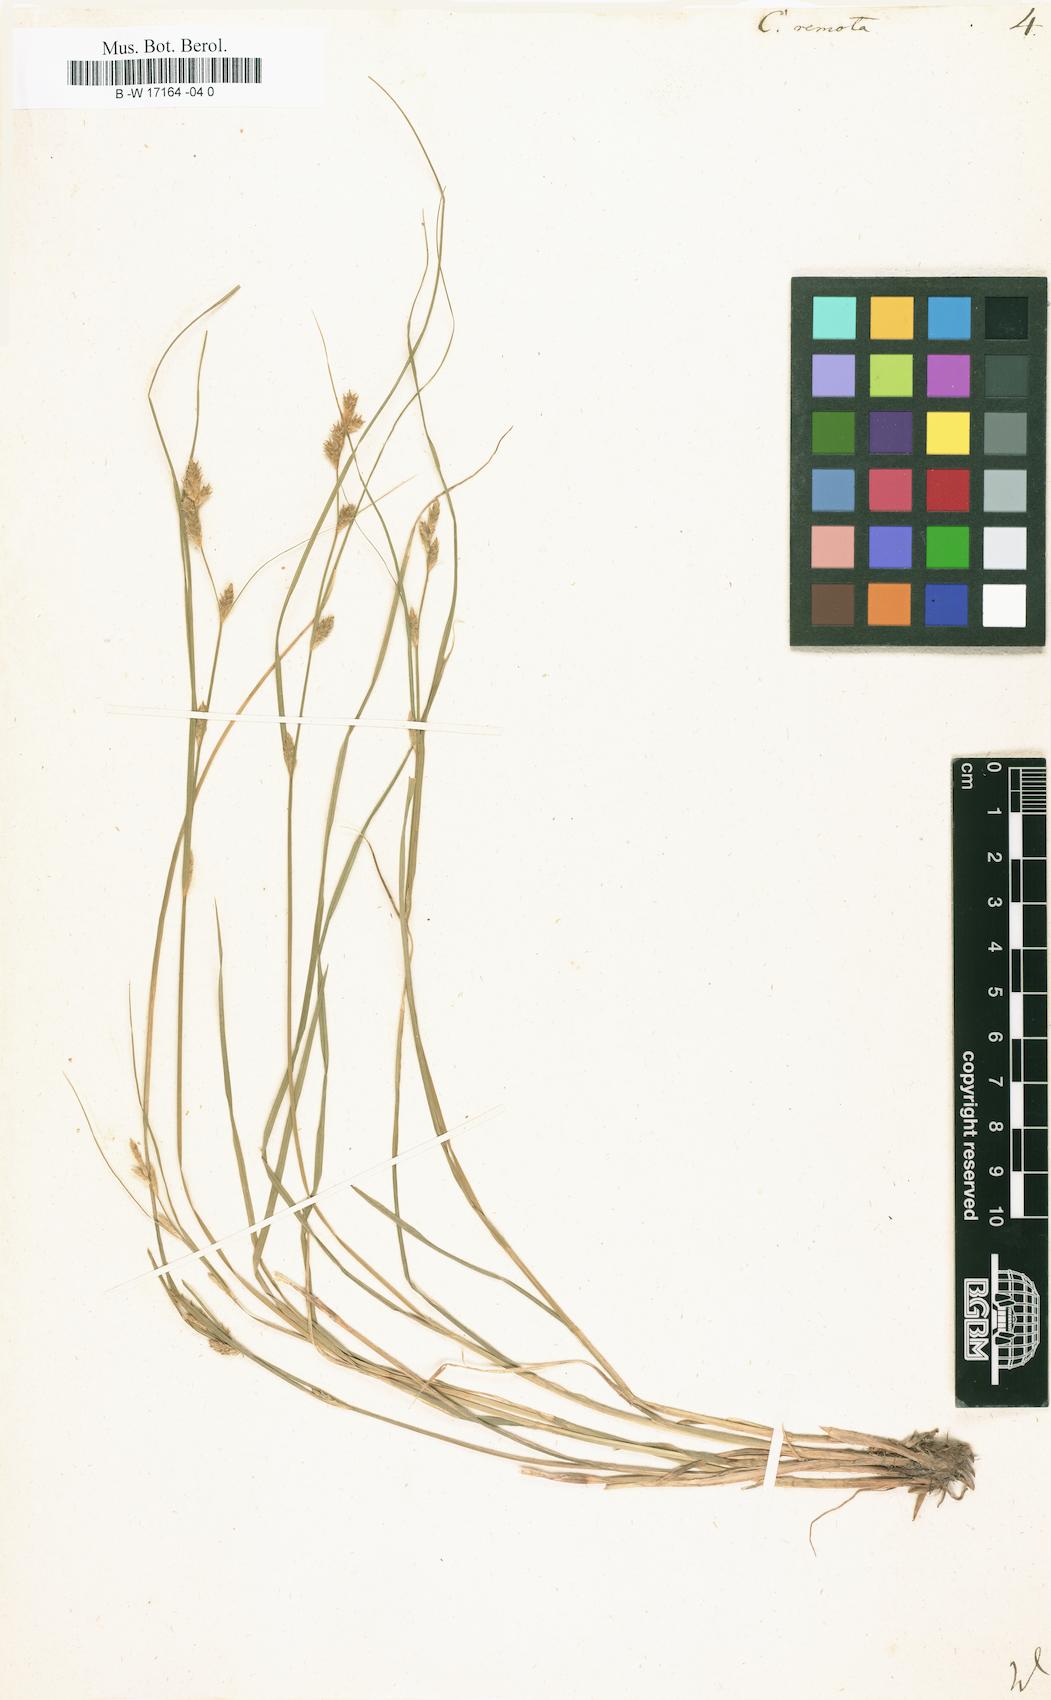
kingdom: Plantae
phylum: Tracheophyta
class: Liliopsida
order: Poales
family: Cyperaceae
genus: Carex
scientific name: Carex remota
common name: Remote sedge
